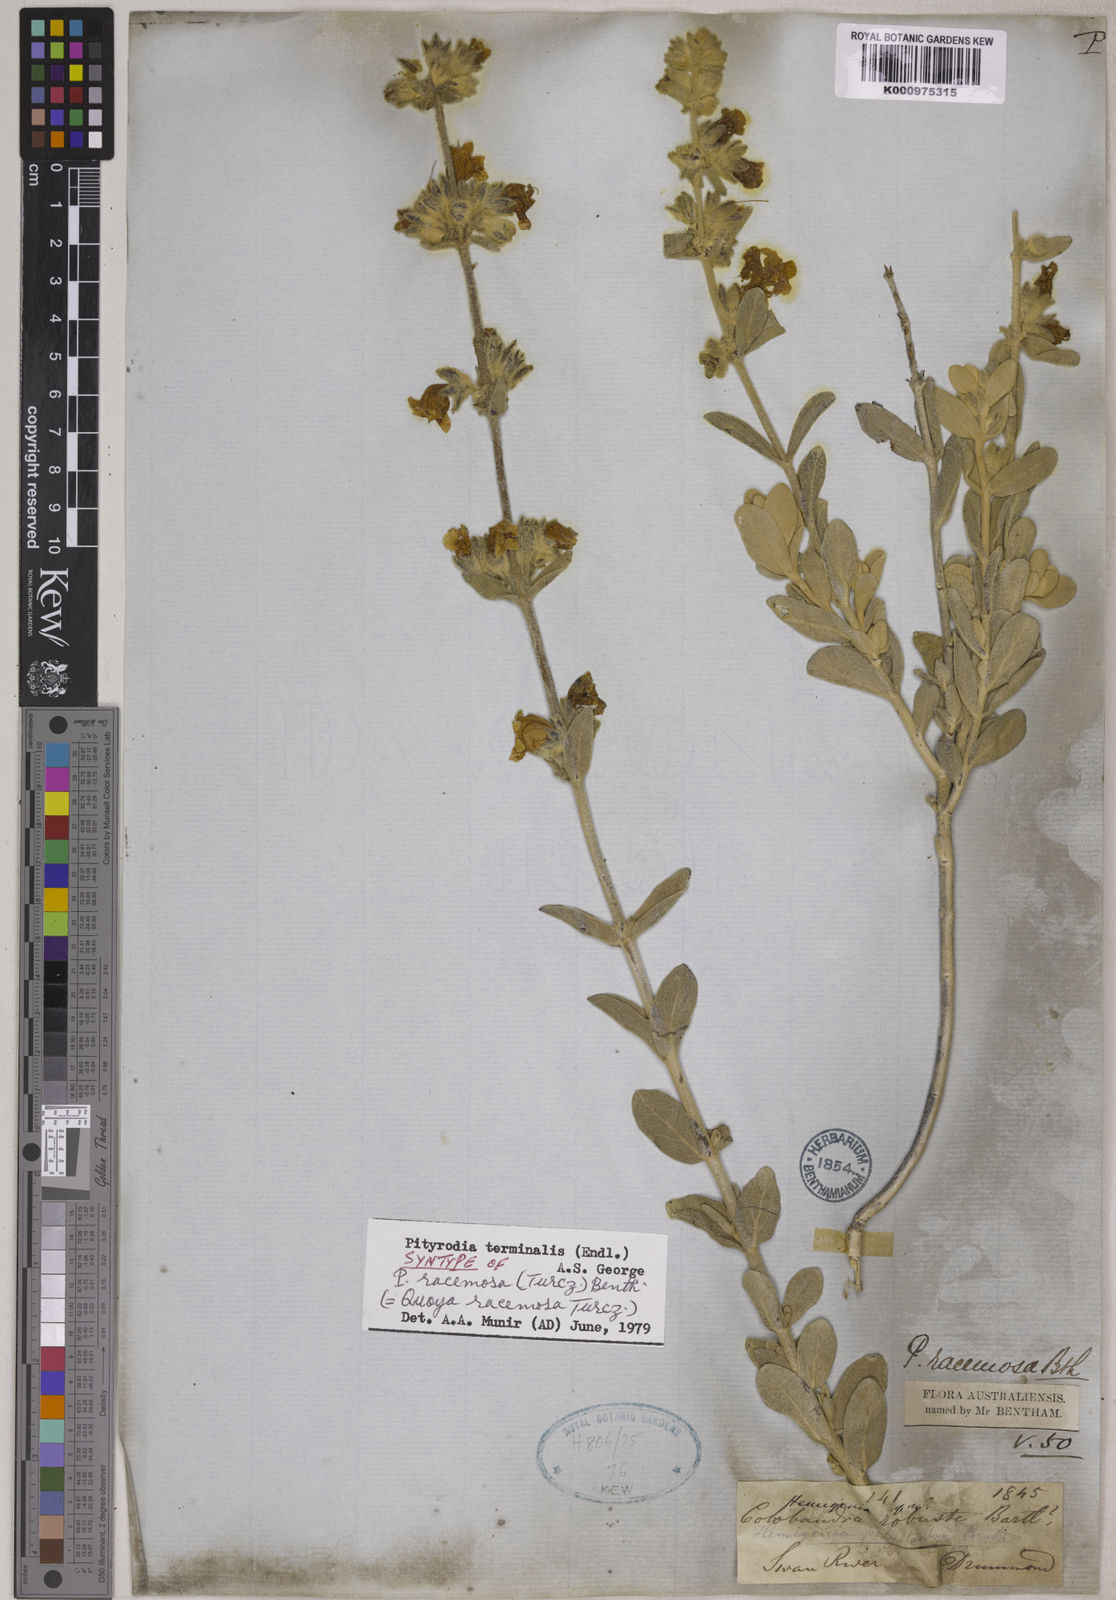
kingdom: Plantae
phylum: Tracheophyta
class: Magnoliopsida
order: Lamiales
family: Lamiaceae
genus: Dasymalla
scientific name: Dasymalla terminalis
